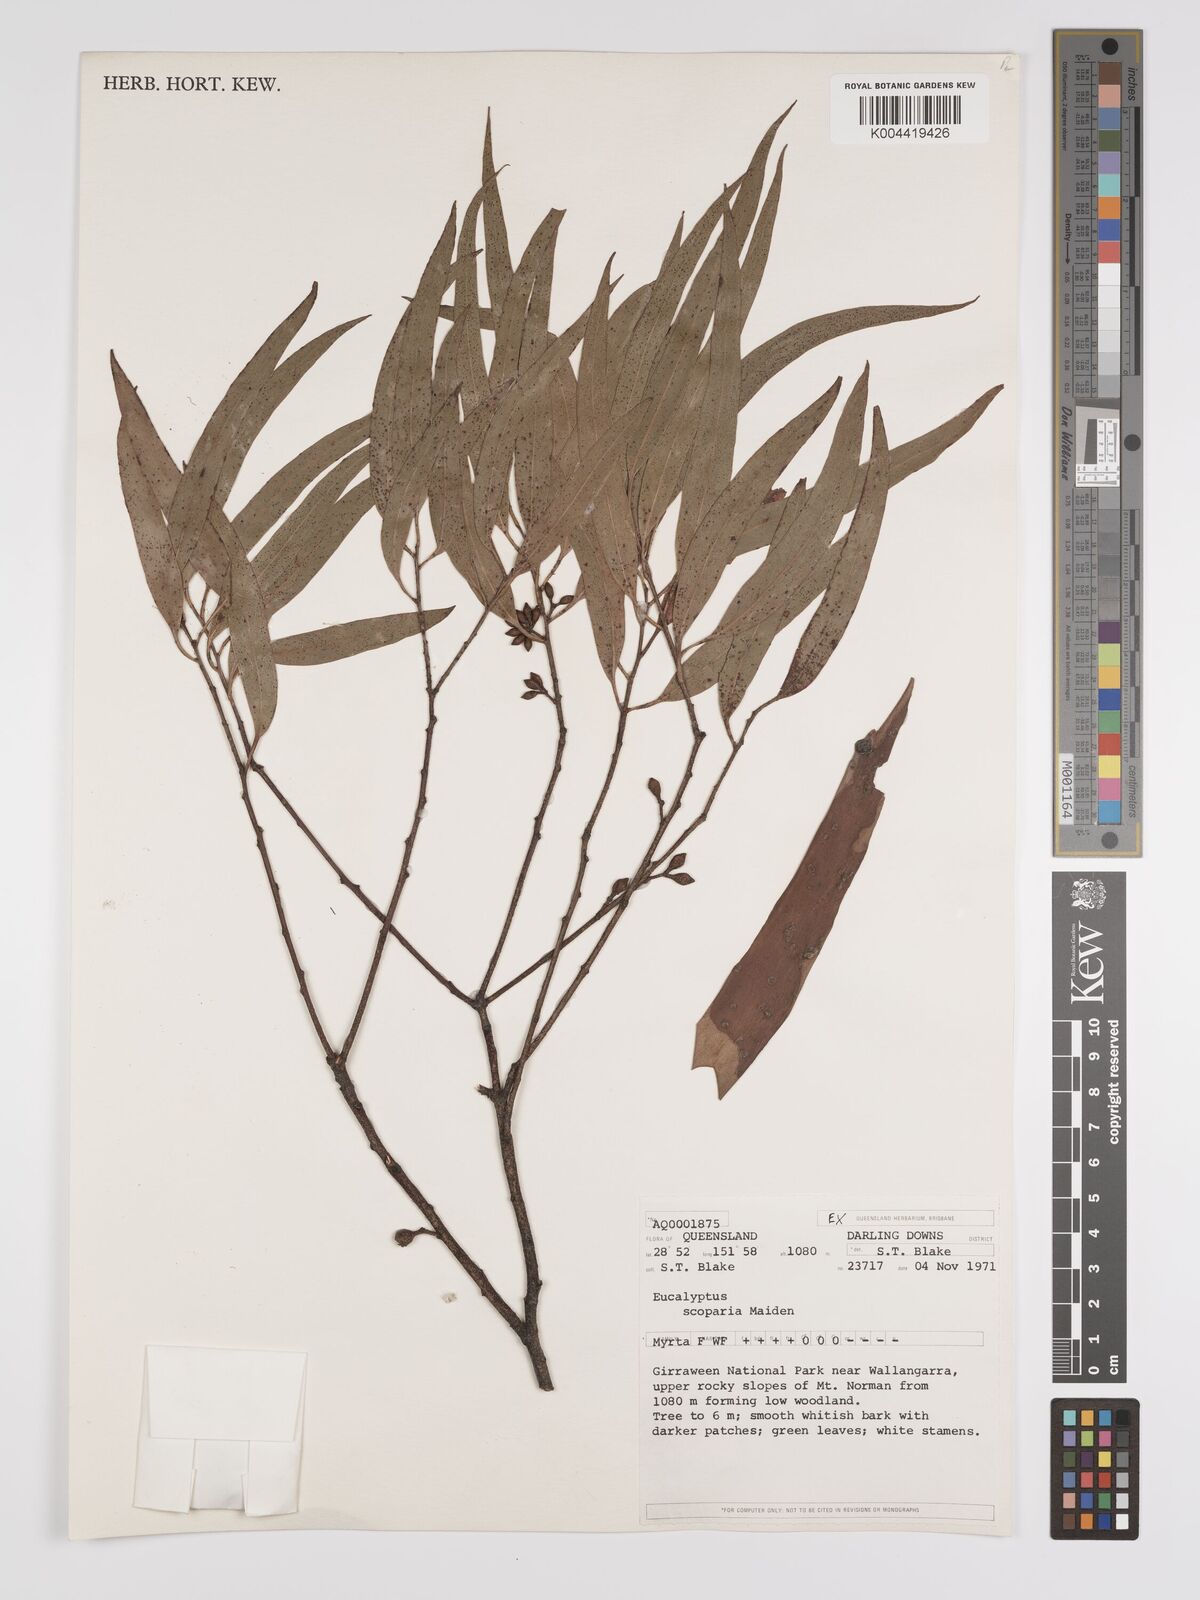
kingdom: Plantae
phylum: Tracheophyta
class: Magnoliopsida
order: Myrtales
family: Myrtaceae
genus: Eucalyptus
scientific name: Eucalyptus scoparia
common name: Wallangarra white gum
